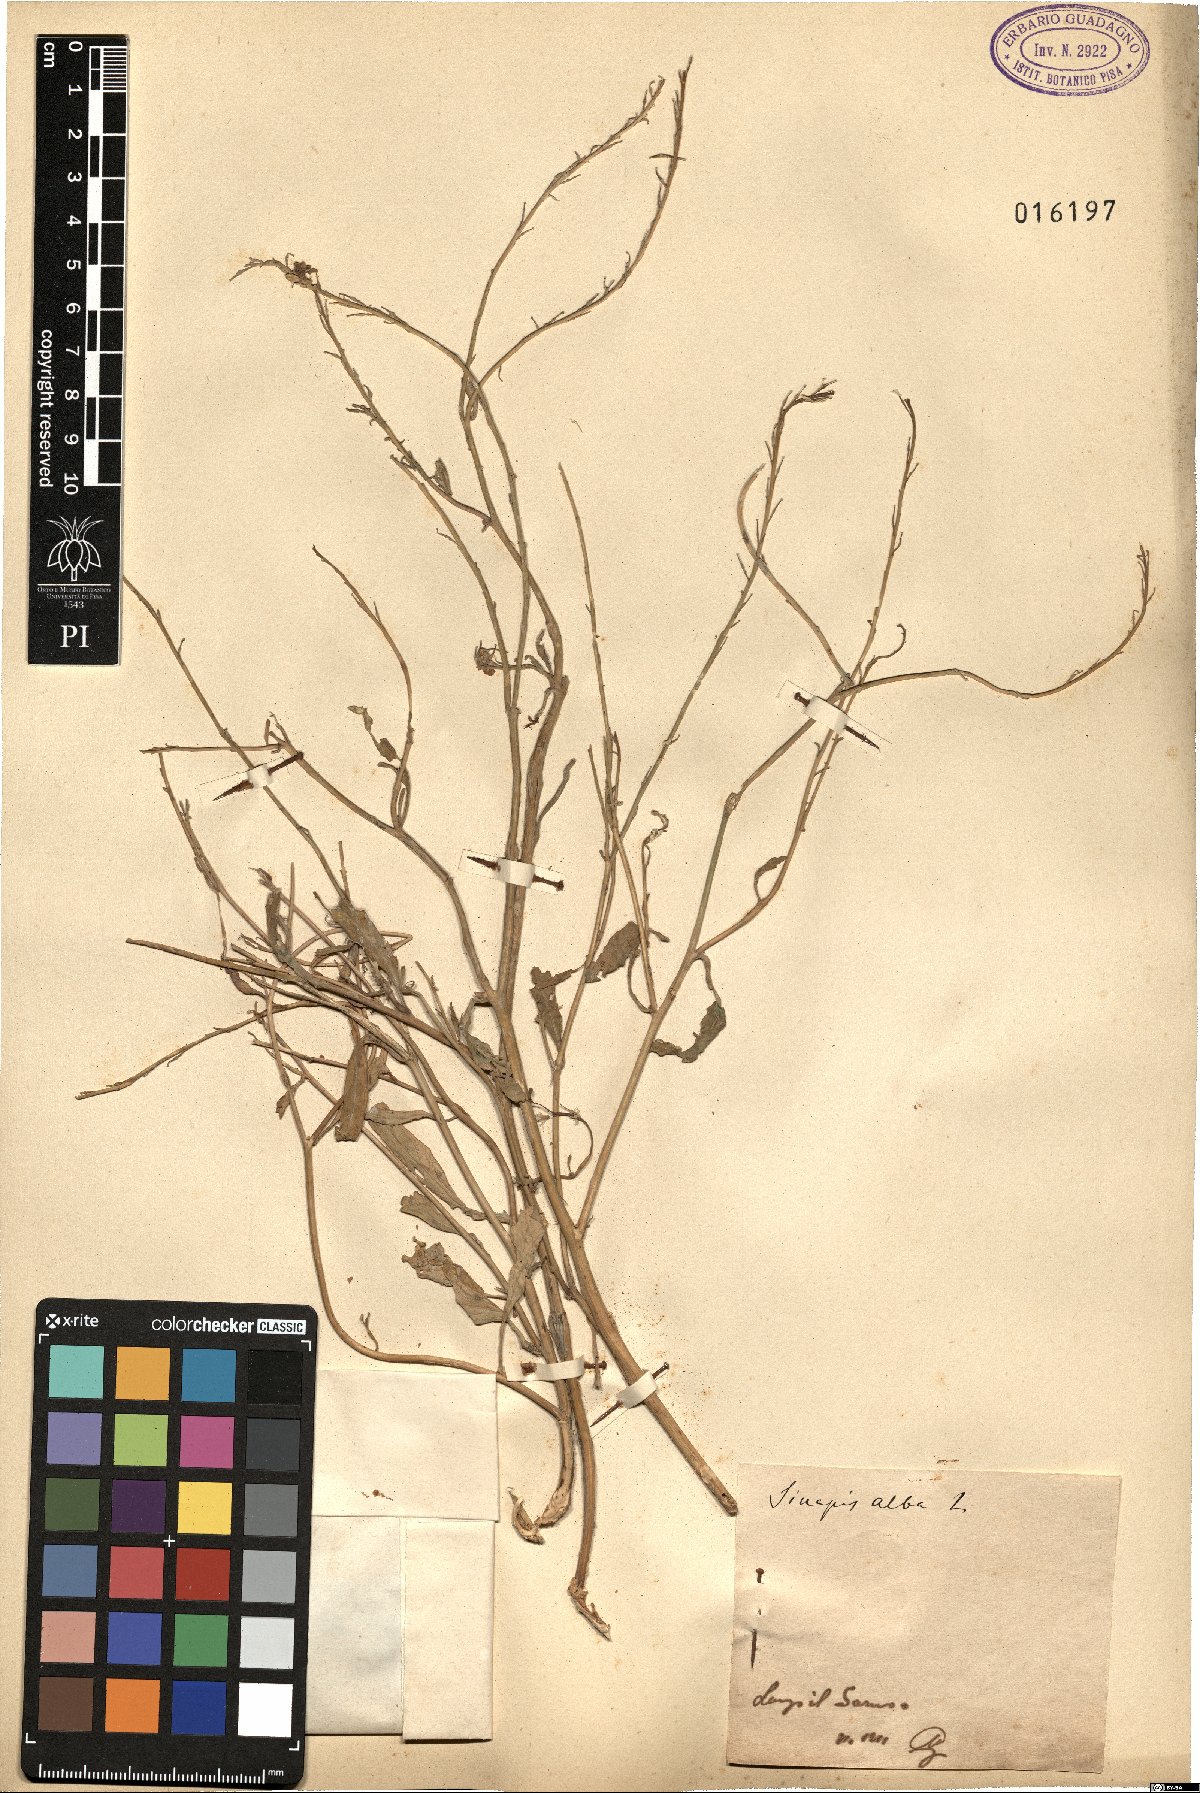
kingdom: Plantae
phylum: Tracheophyta
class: Magnoliopsida
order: Brassicales
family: Brassicaceae
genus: Sinapis
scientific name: Sinapis alba
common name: White mustard
